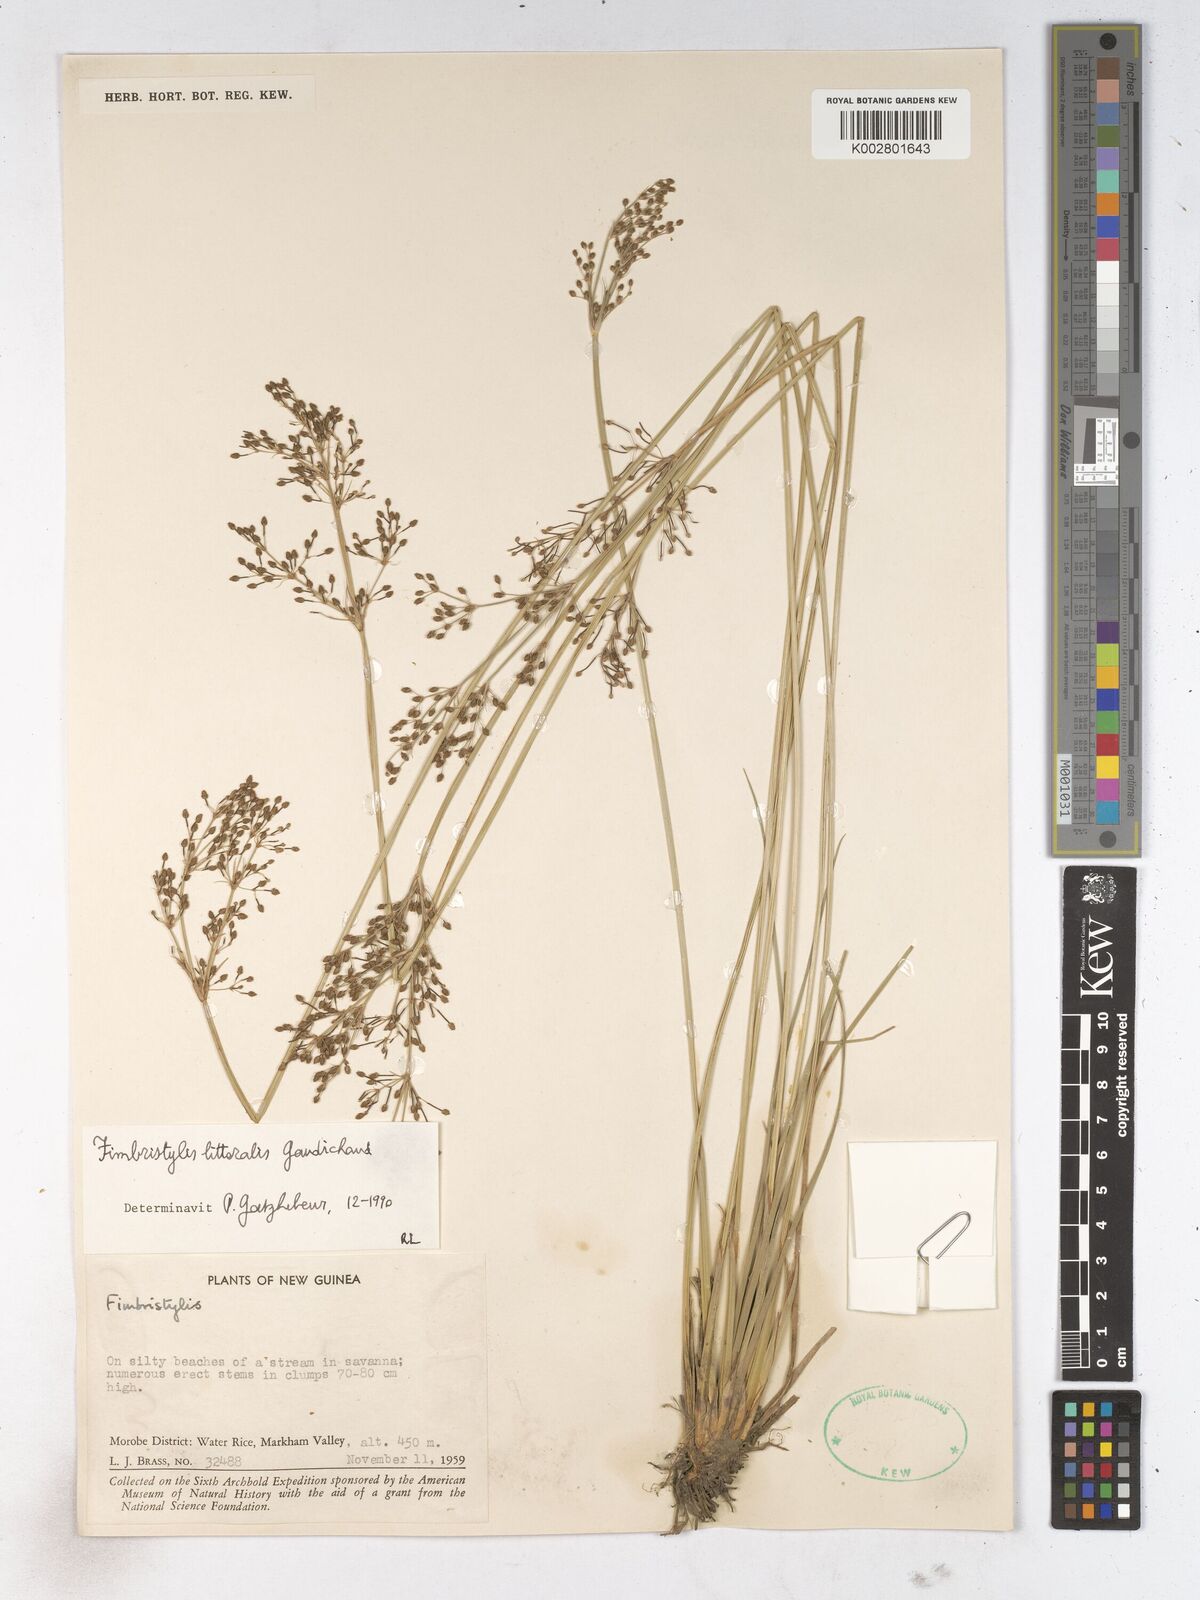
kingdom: Plantae
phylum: Tracheophyta
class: Liliopsida
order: Poales
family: Cyperaceae
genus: Fimbristylis
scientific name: Fimbristylis littoralis
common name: Fimbry
